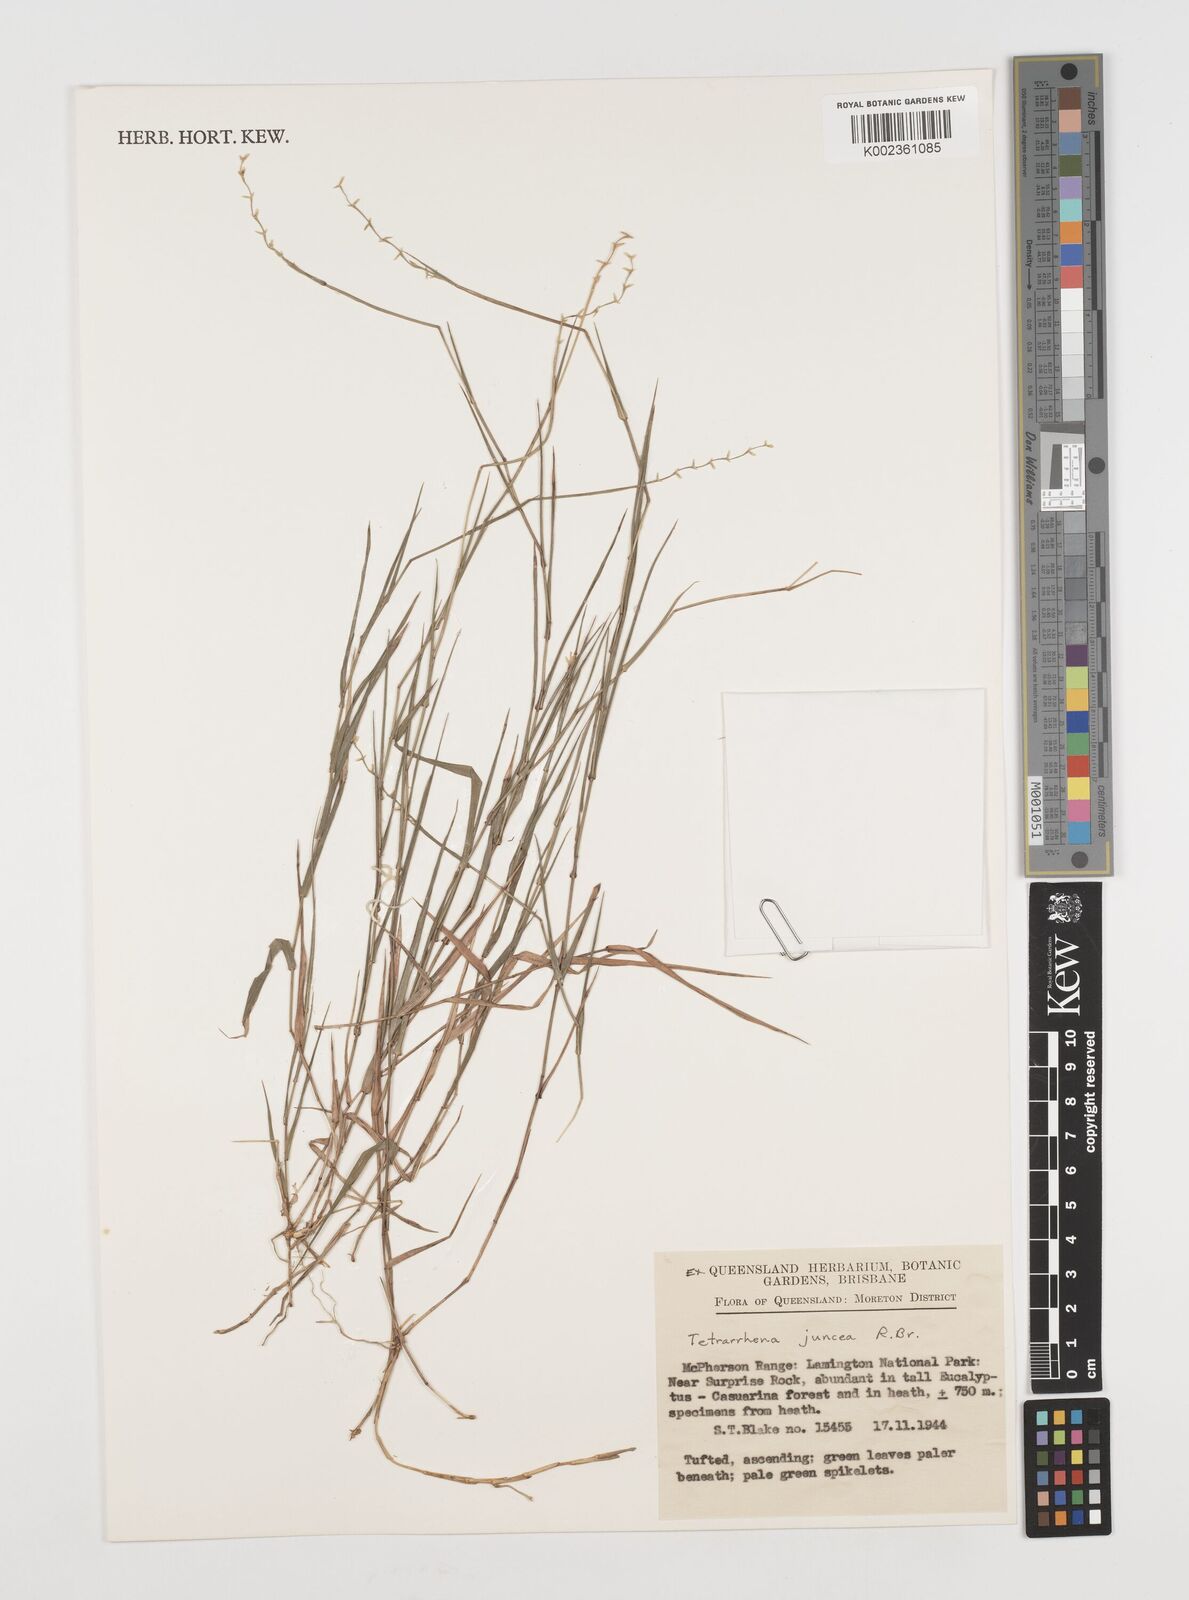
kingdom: Plantae
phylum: Tracheophyta
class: Liliopsida
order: Poales
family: Poaceae
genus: Tetrarrhena
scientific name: Tetrarrhena juncea
